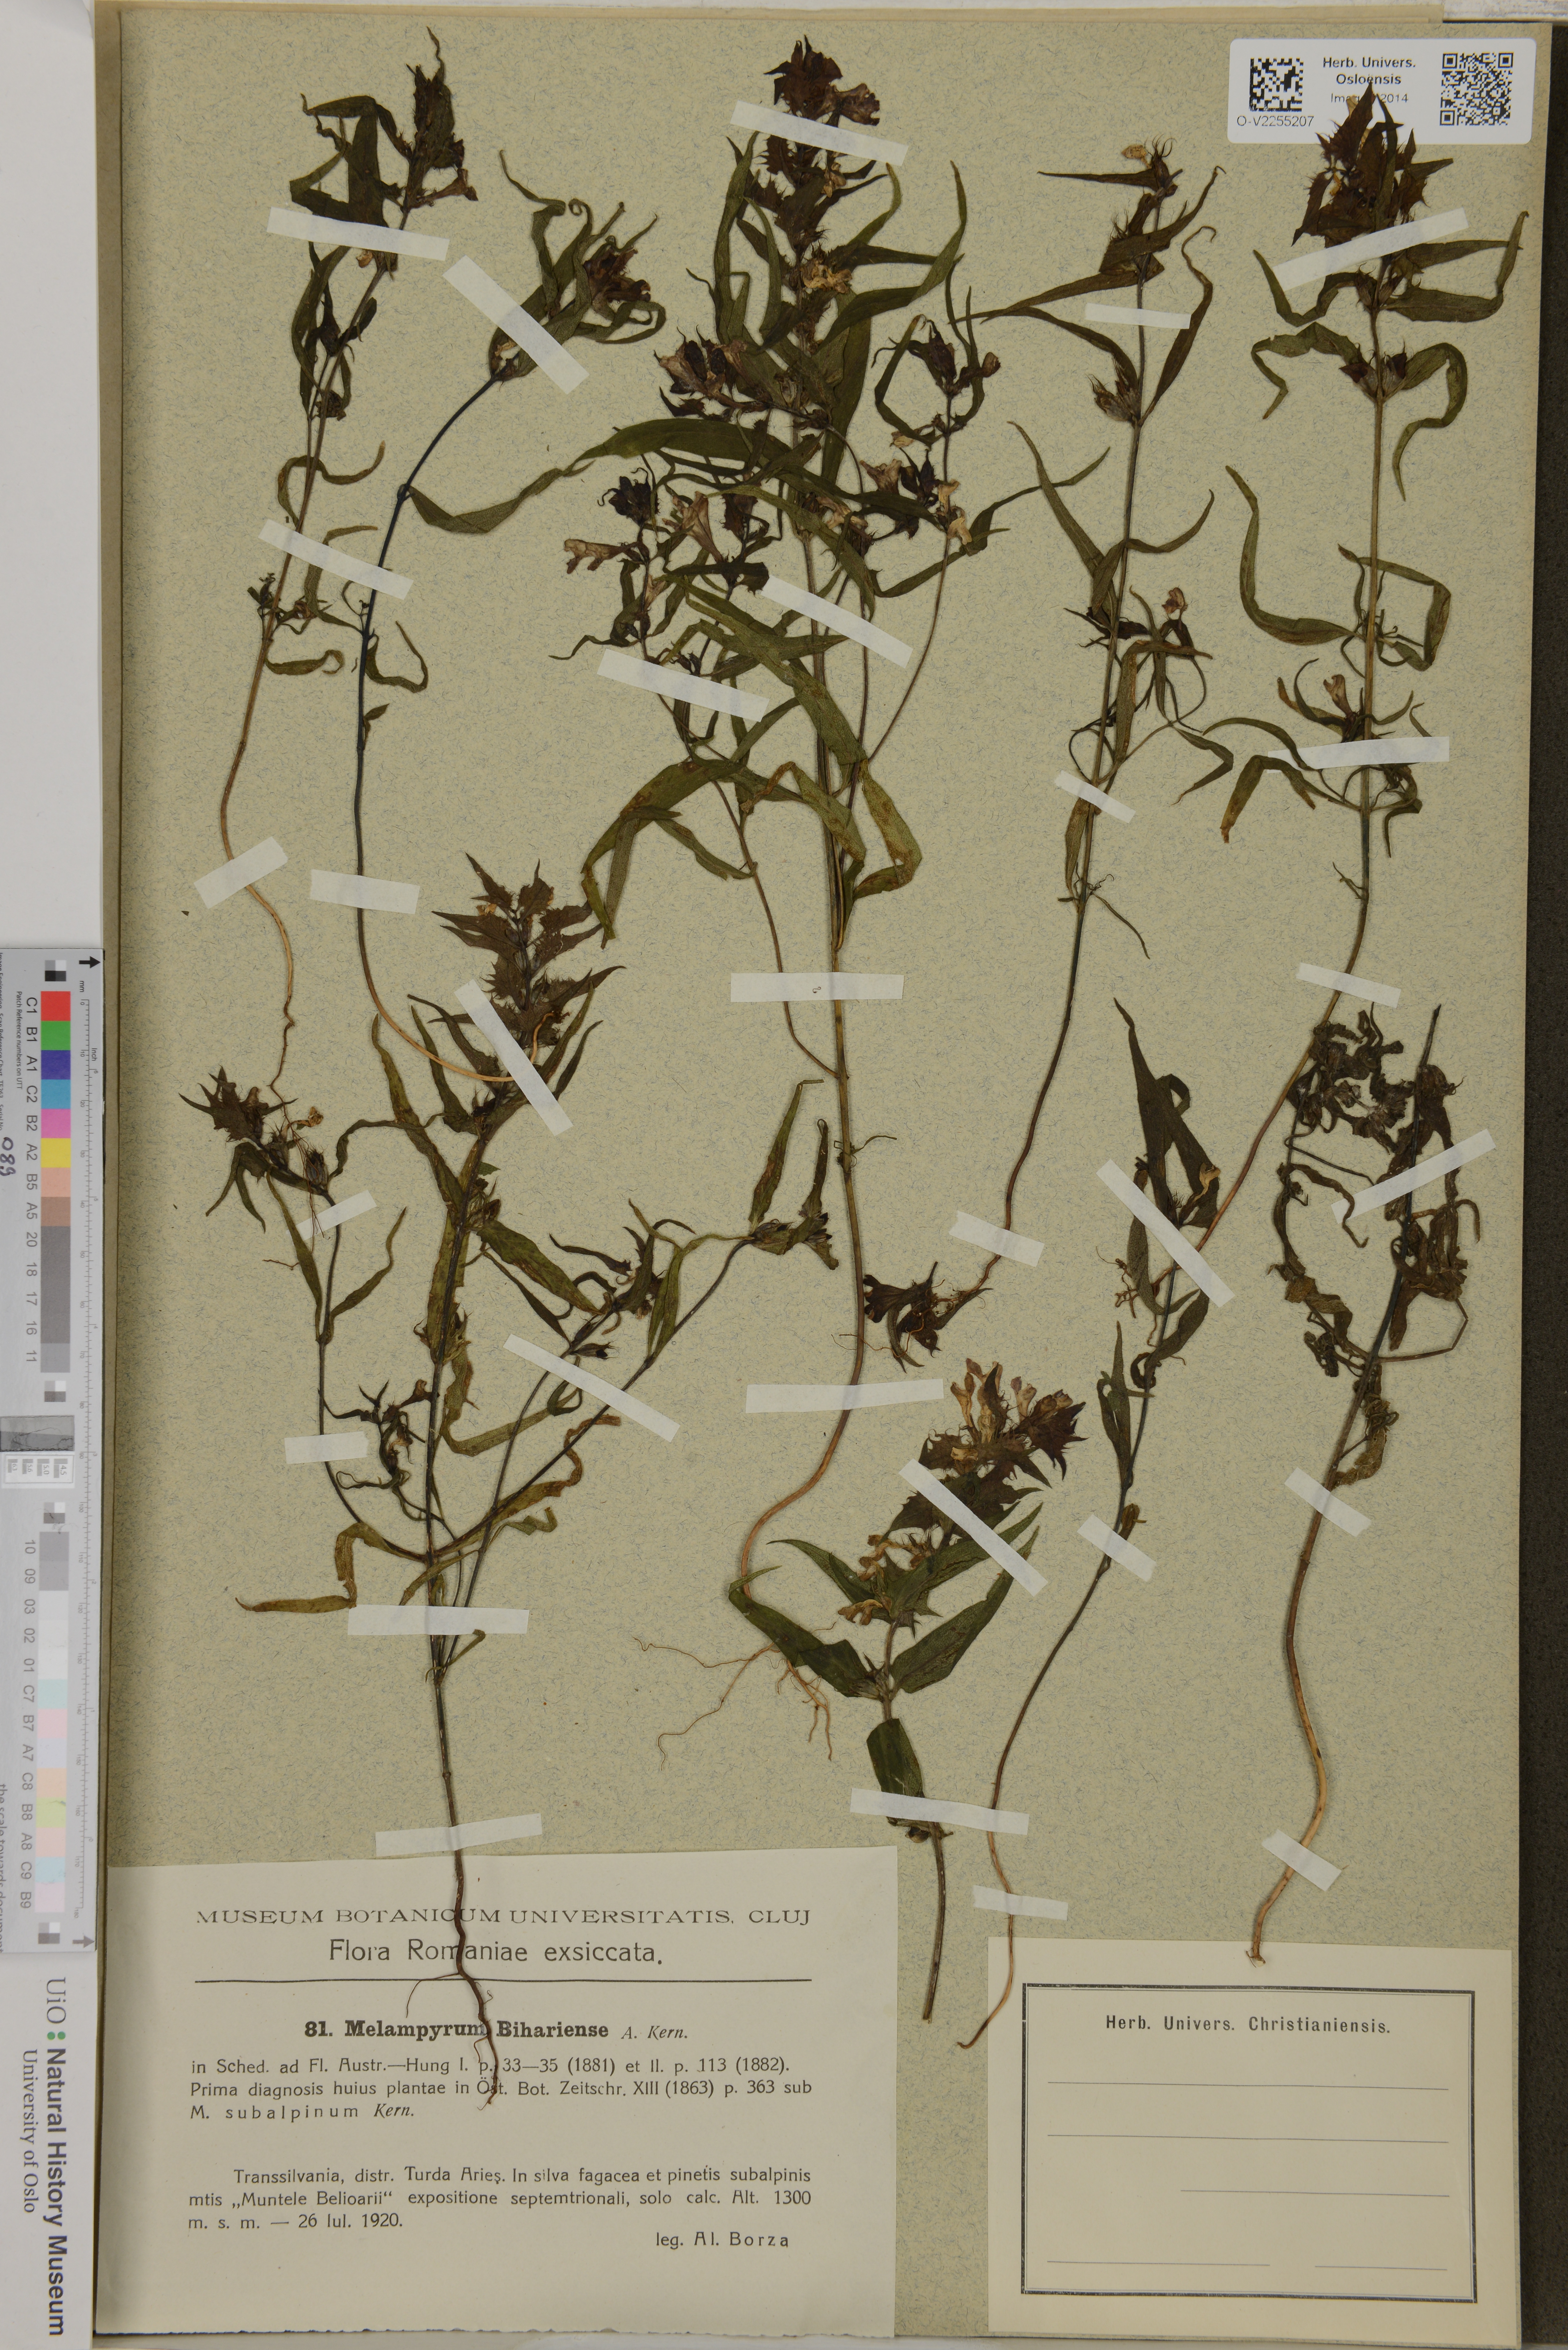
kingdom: Plantae
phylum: Tracheophyta
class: Magnoliopsida
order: Lamiales
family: Orobanchaceae
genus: Melampyrum
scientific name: Melampyrum bihariense
